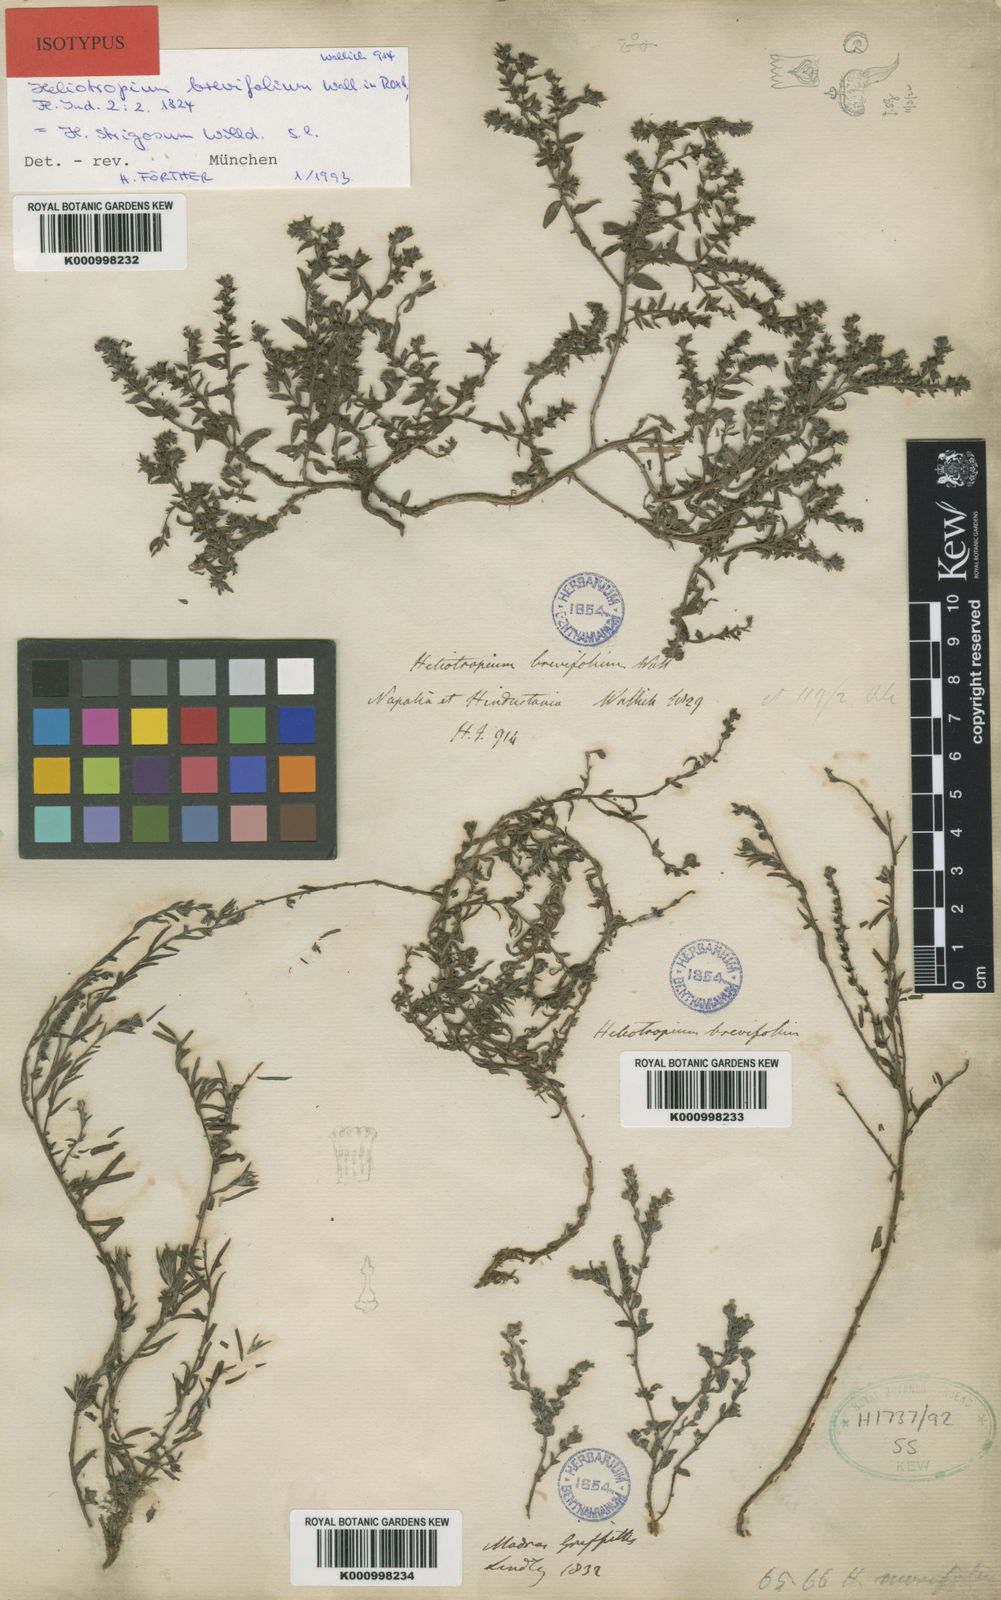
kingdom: Plantae
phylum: Tracheophyta
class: Magnoliopsida
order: Boraginales
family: Heliotropiaceae
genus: Euploca
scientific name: Euploca strigosa
